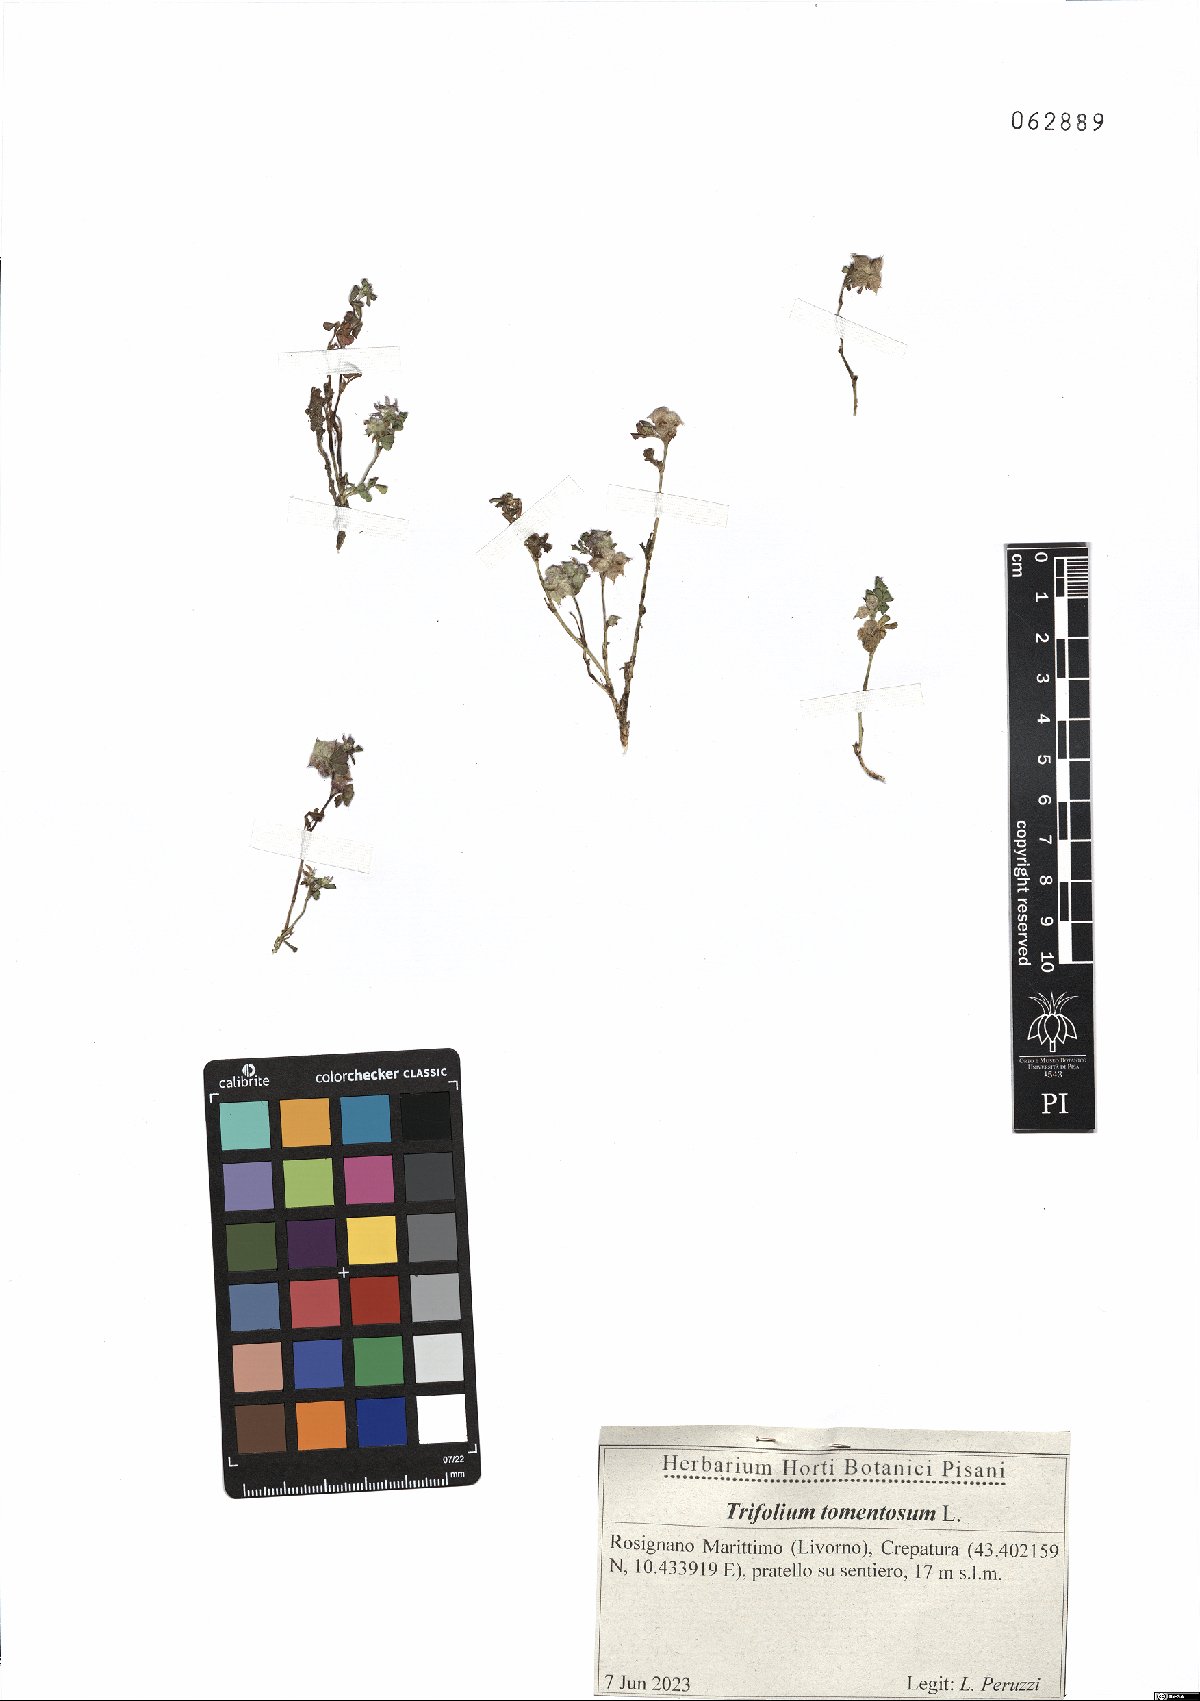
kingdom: Plantae
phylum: Tracheophyta
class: Magnoliopsida
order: Fabales
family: Fabaceae
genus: Trifolium
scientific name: Trifolium tomentosum
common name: Woolly clover
